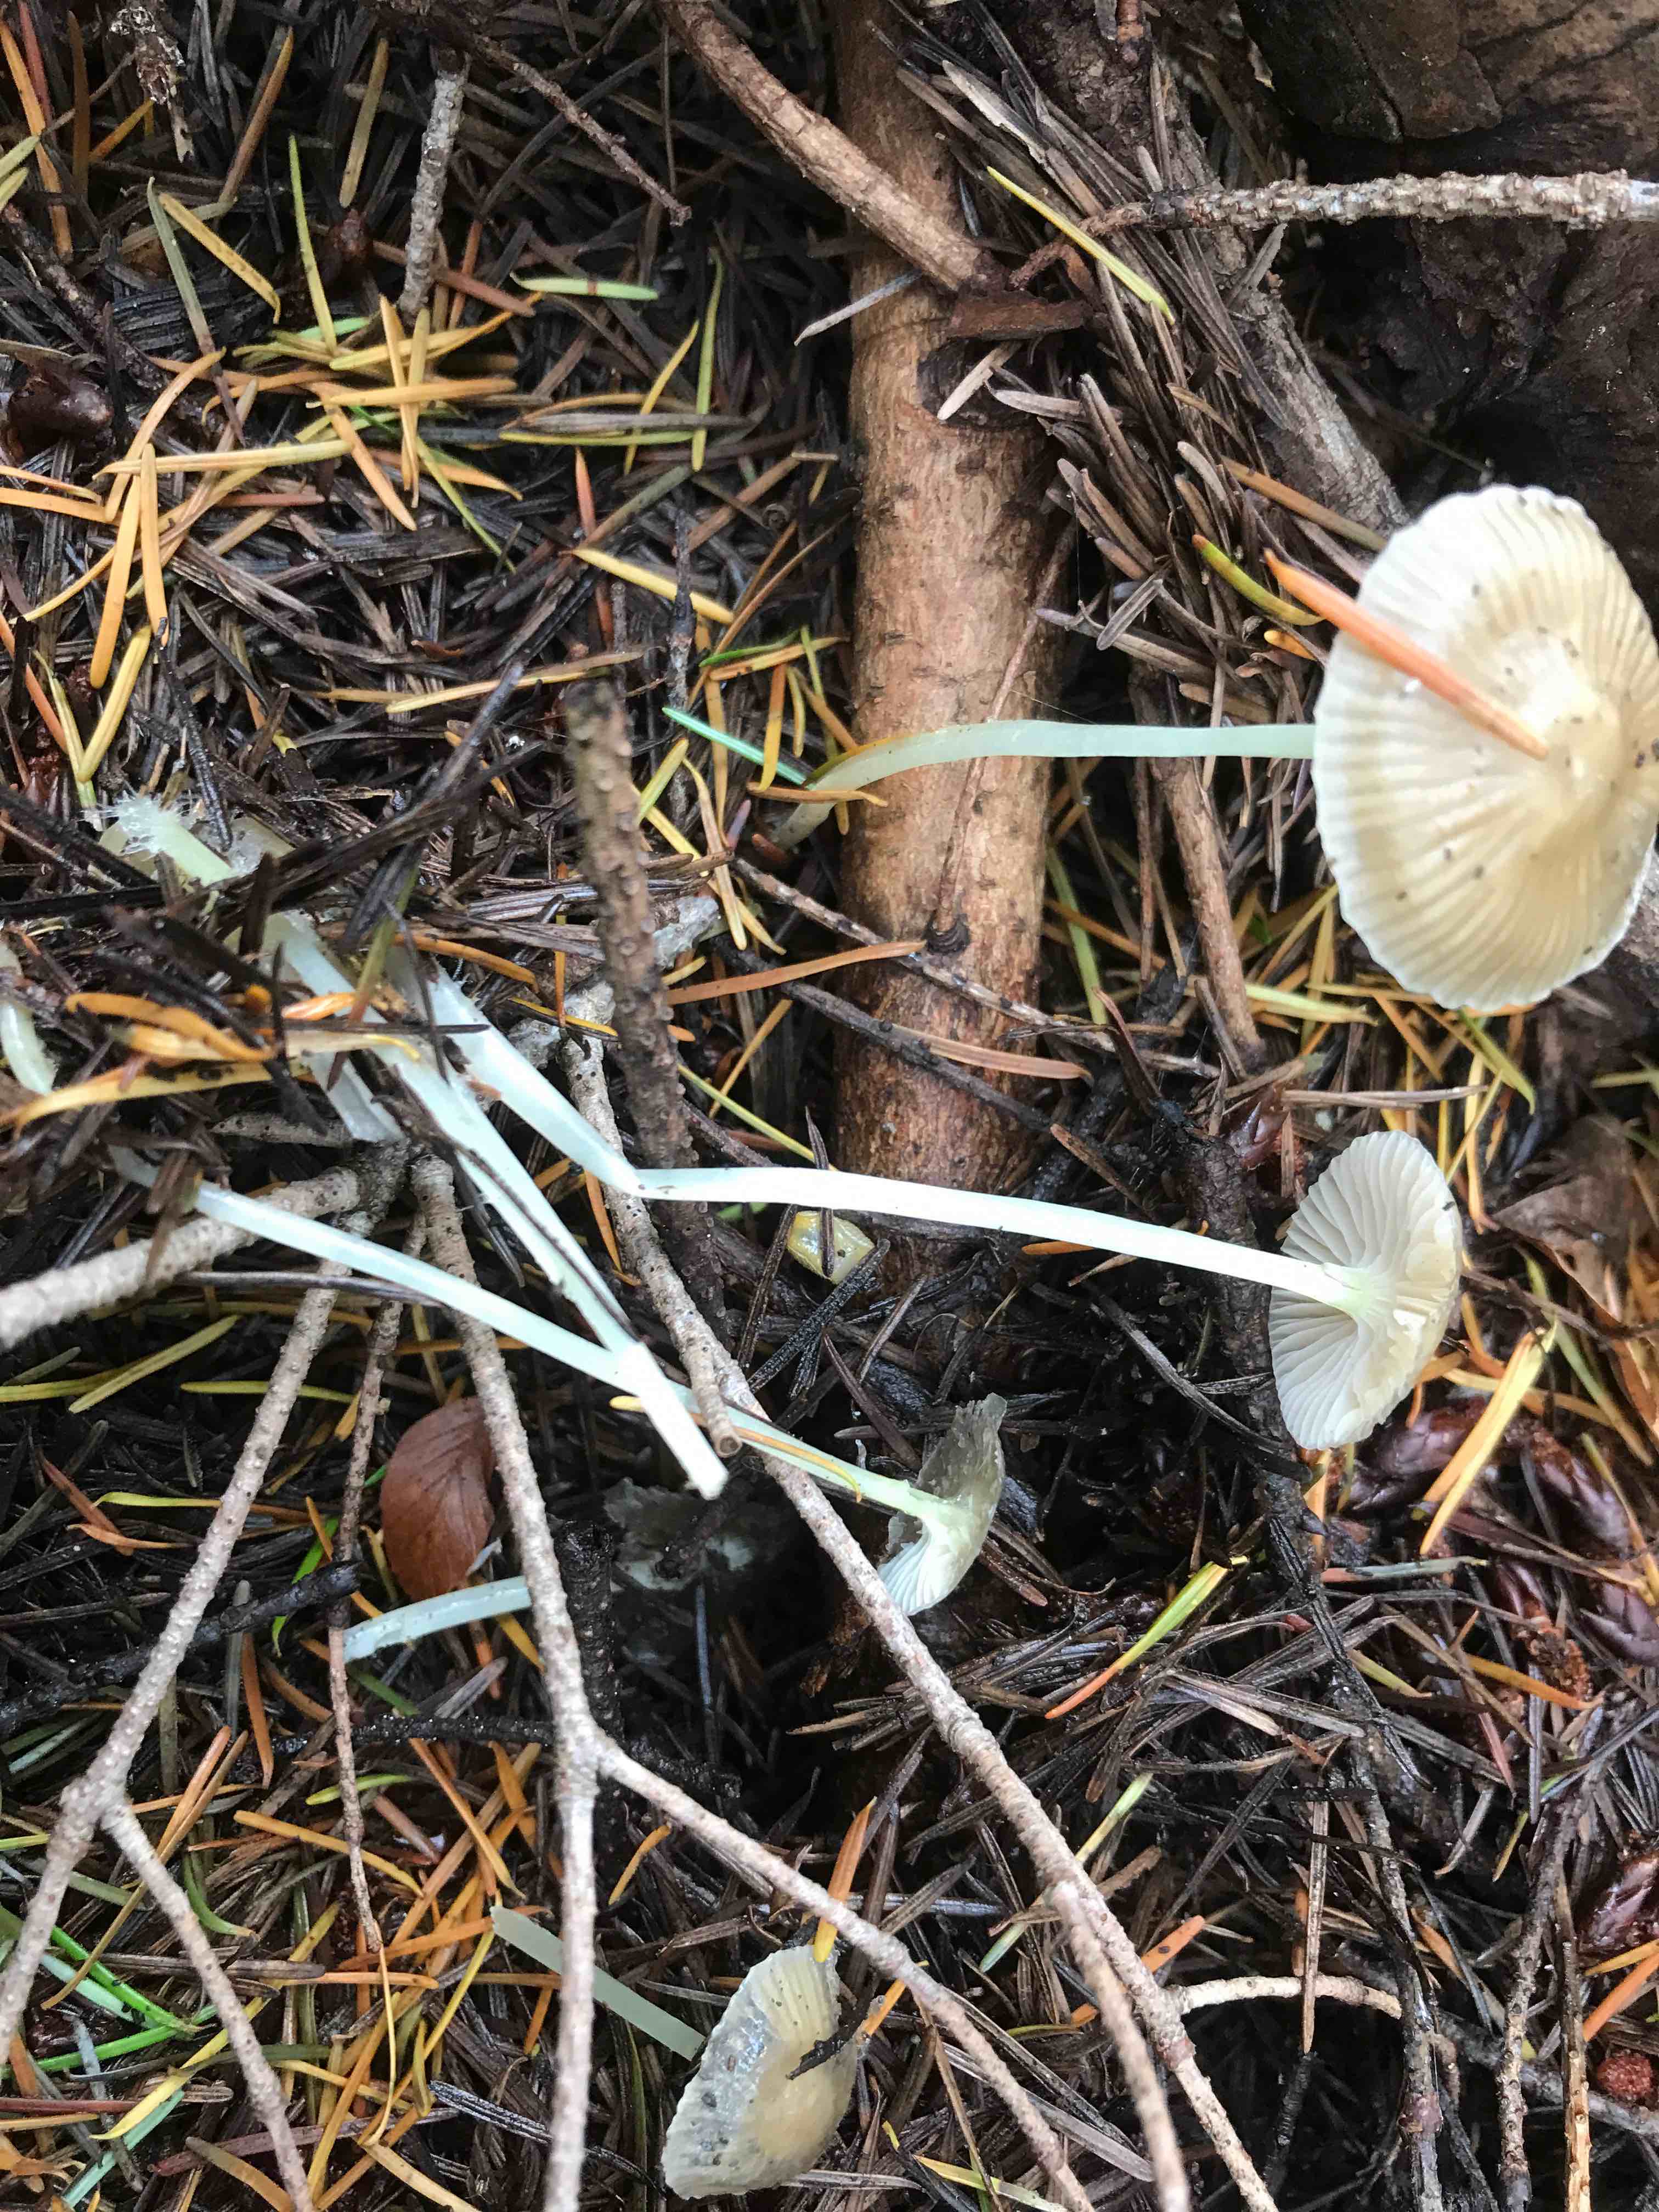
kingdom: Fungi
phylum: Basidiomycota
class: Agaricomycetes
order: Agaricales
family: Mycenaceae
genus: Mycena
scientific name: Mycena epipterygia
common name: gulstokket huesvamp
